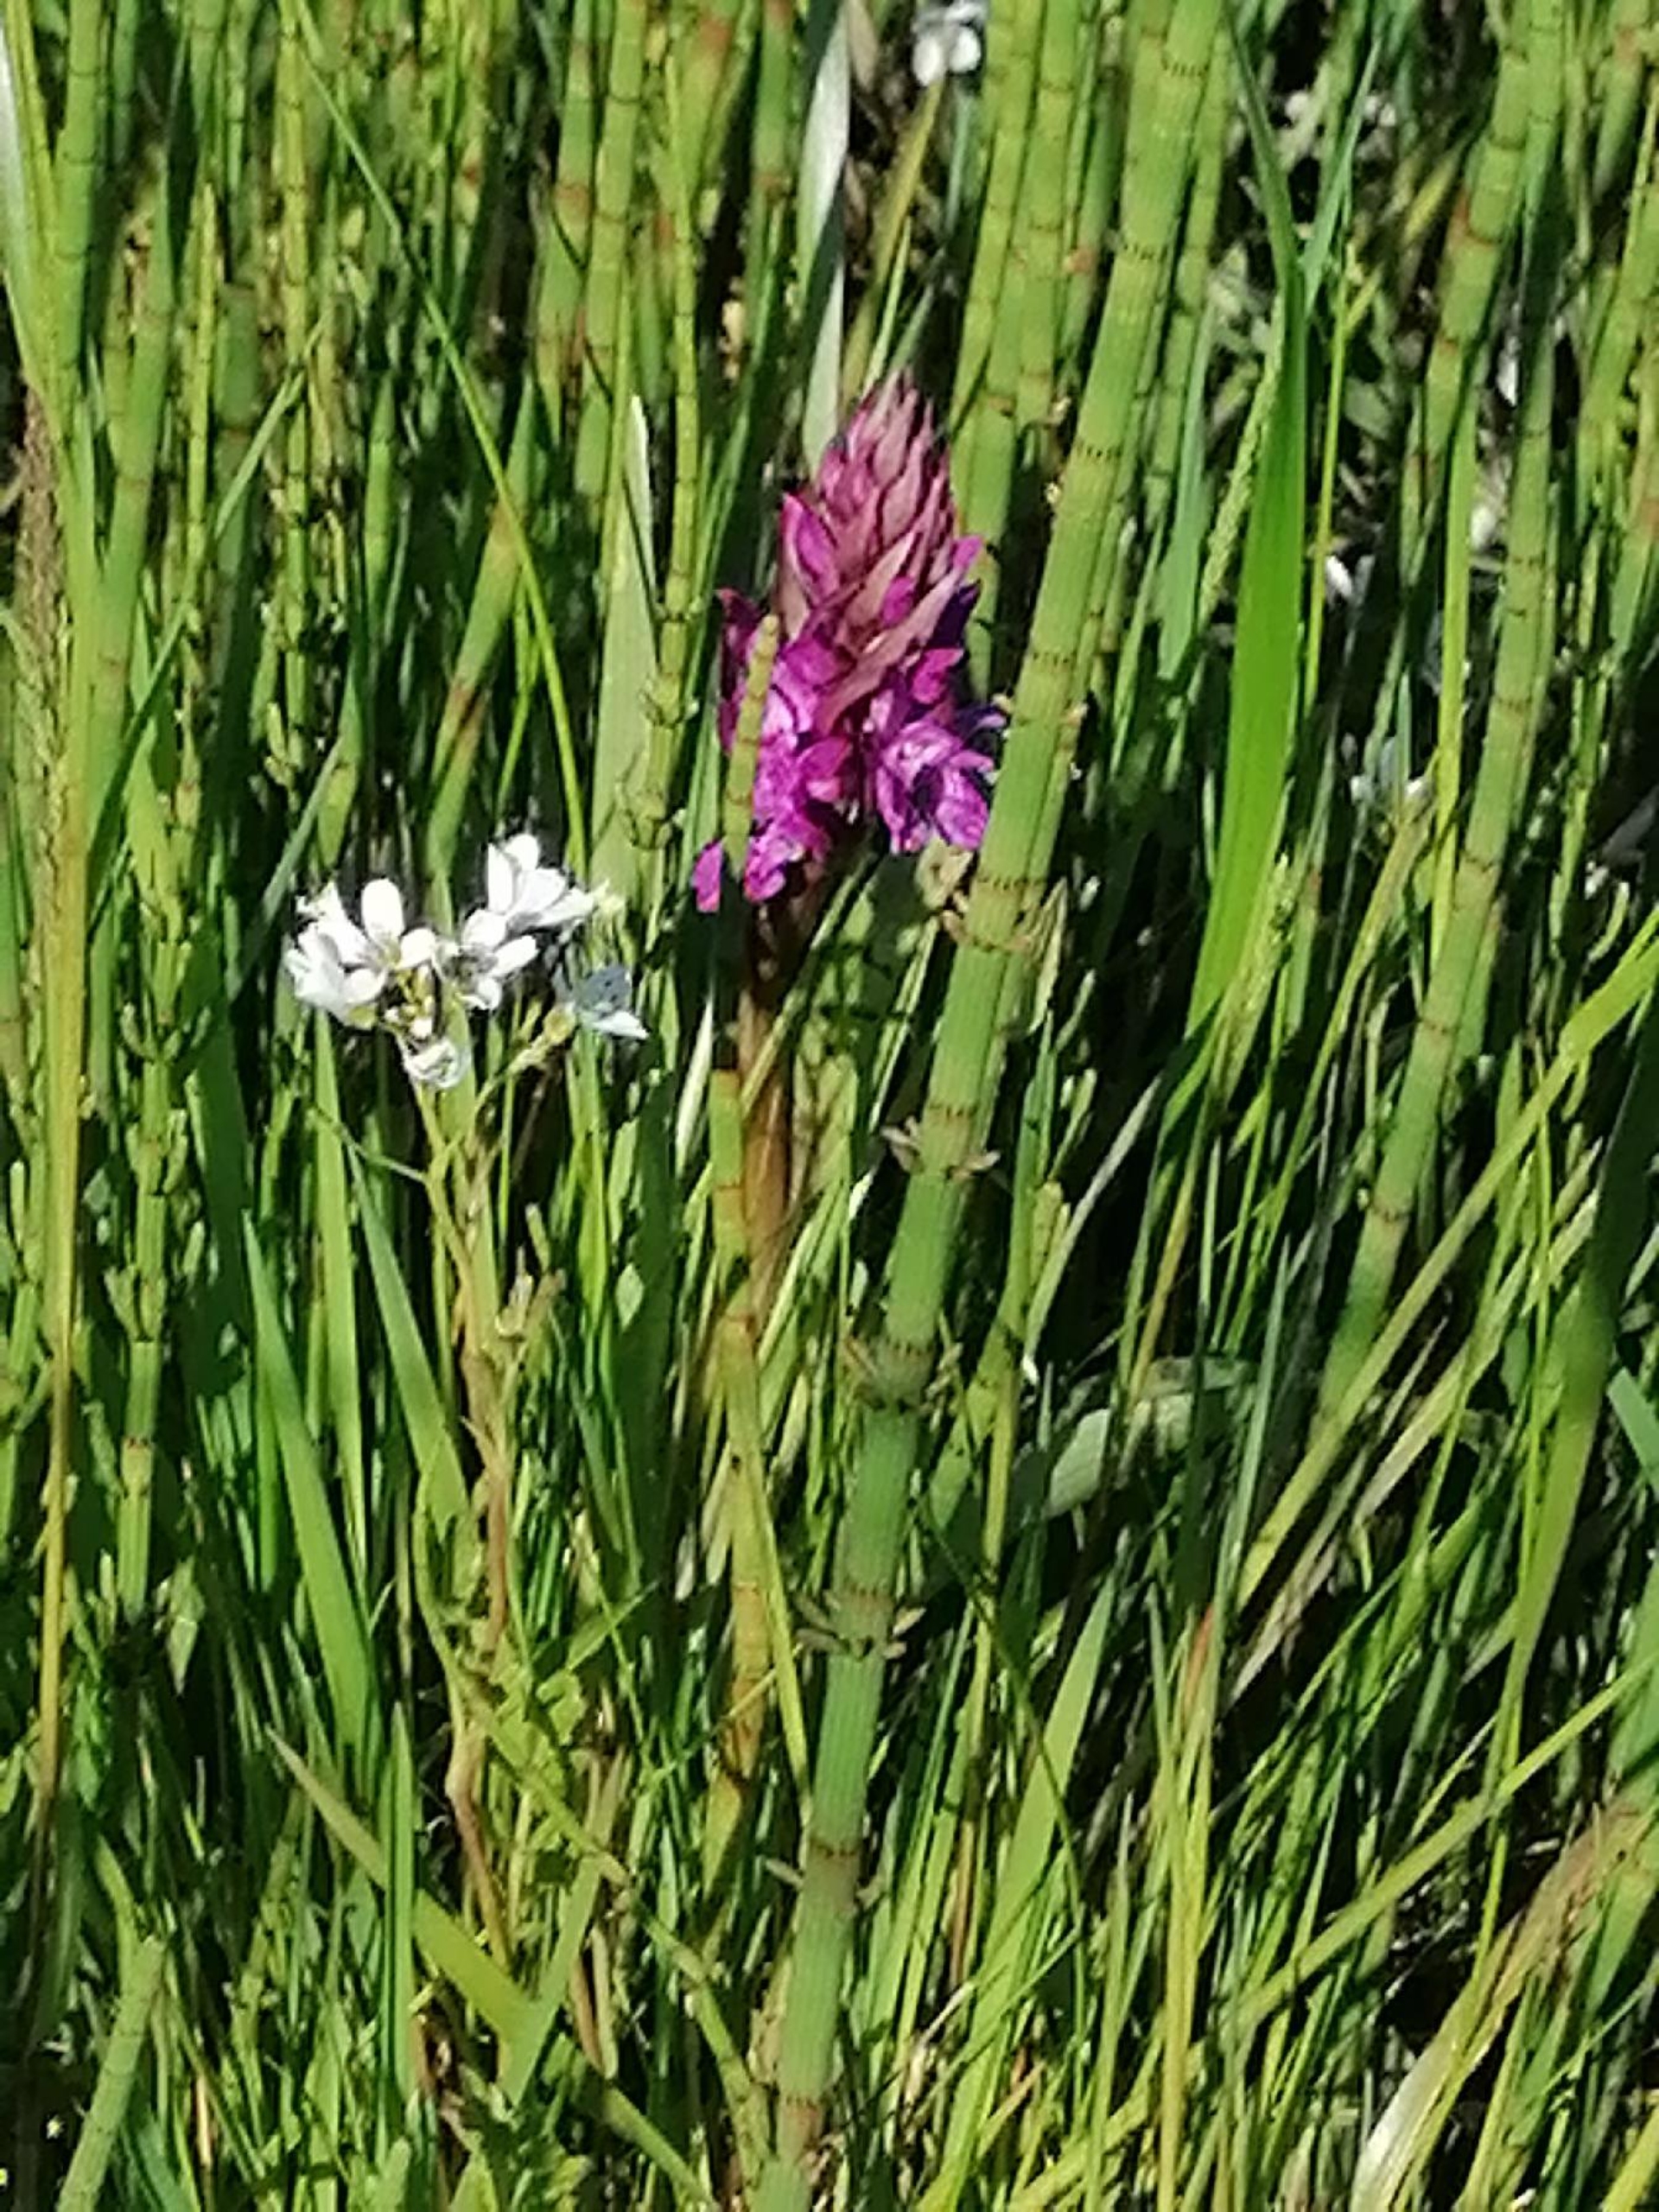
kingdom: Plantae
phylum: Tracheophyta
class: Liliopsida
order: Asparagales
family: Orchidaceae
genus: Dactylorhiza
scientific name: Dactylorhiza majalis
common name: Maj-gøgeurt
